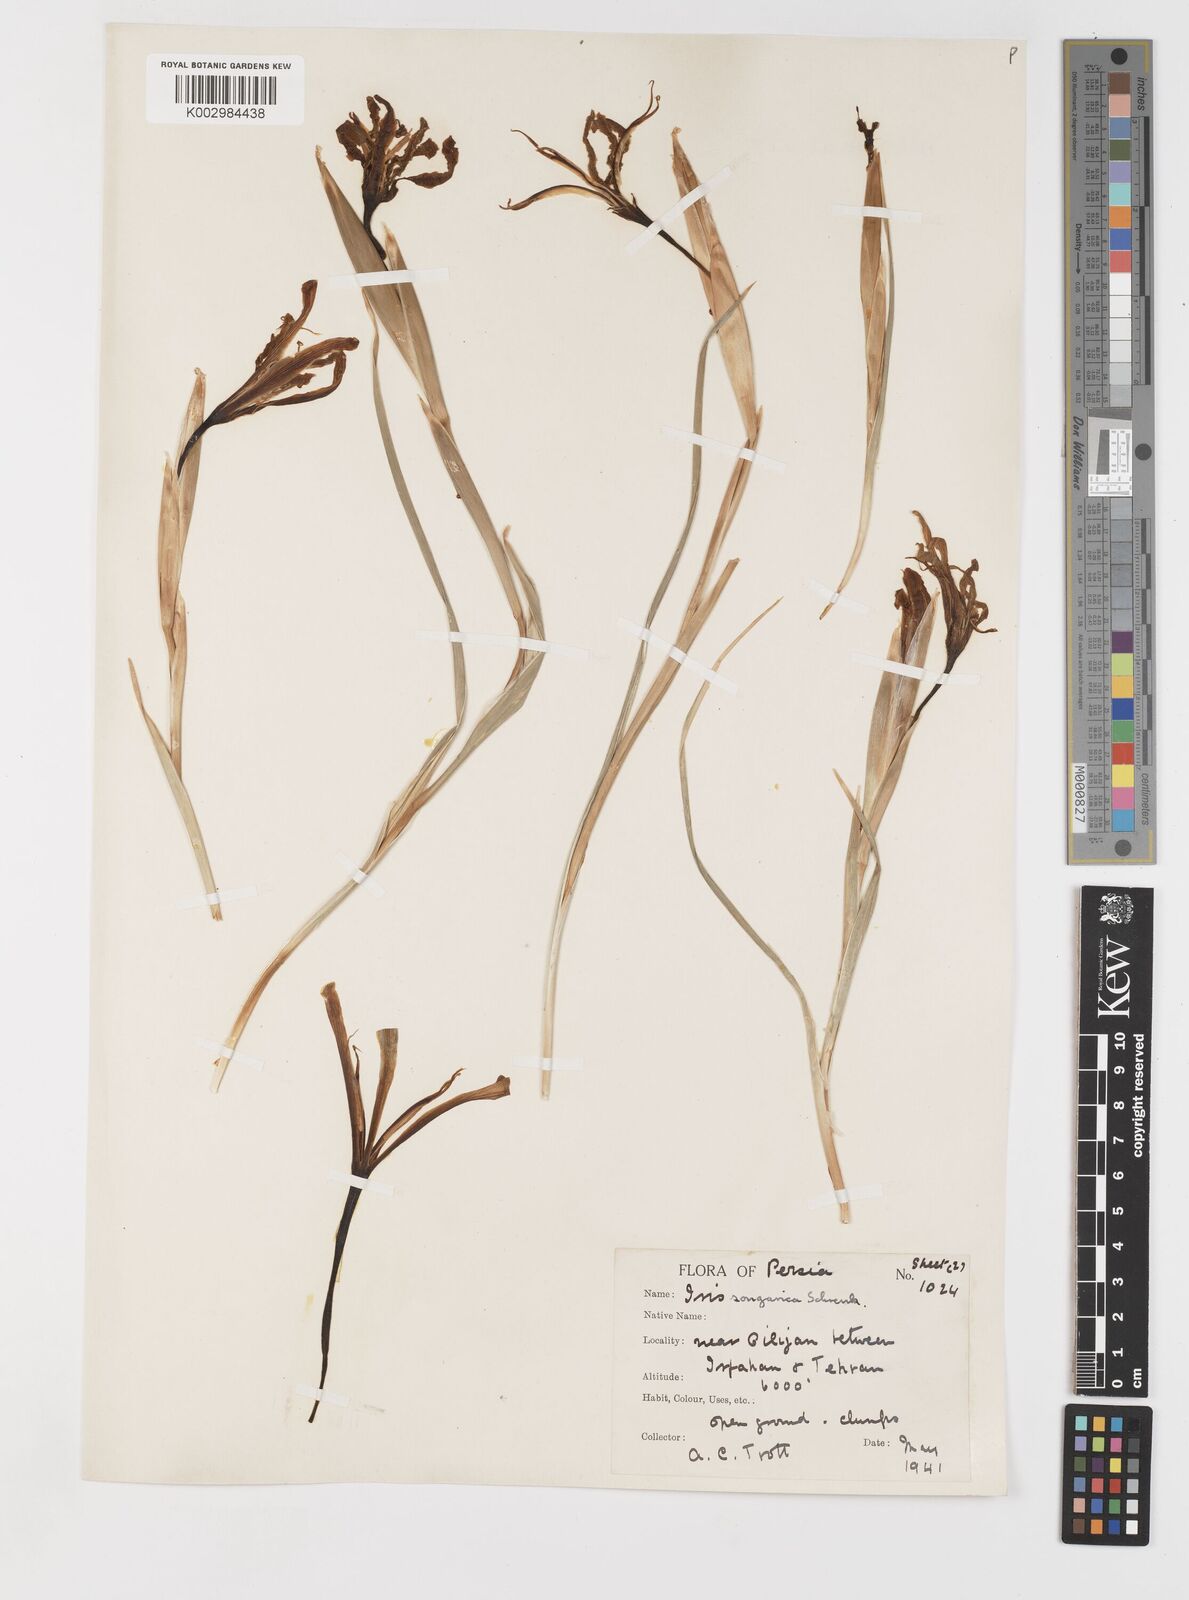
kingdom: Plantae
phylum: Tracheophyta
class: Liliopsida
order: Asparagales
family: Iridaceae
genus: Iris
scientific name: Iris songarica
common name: Songar iris
